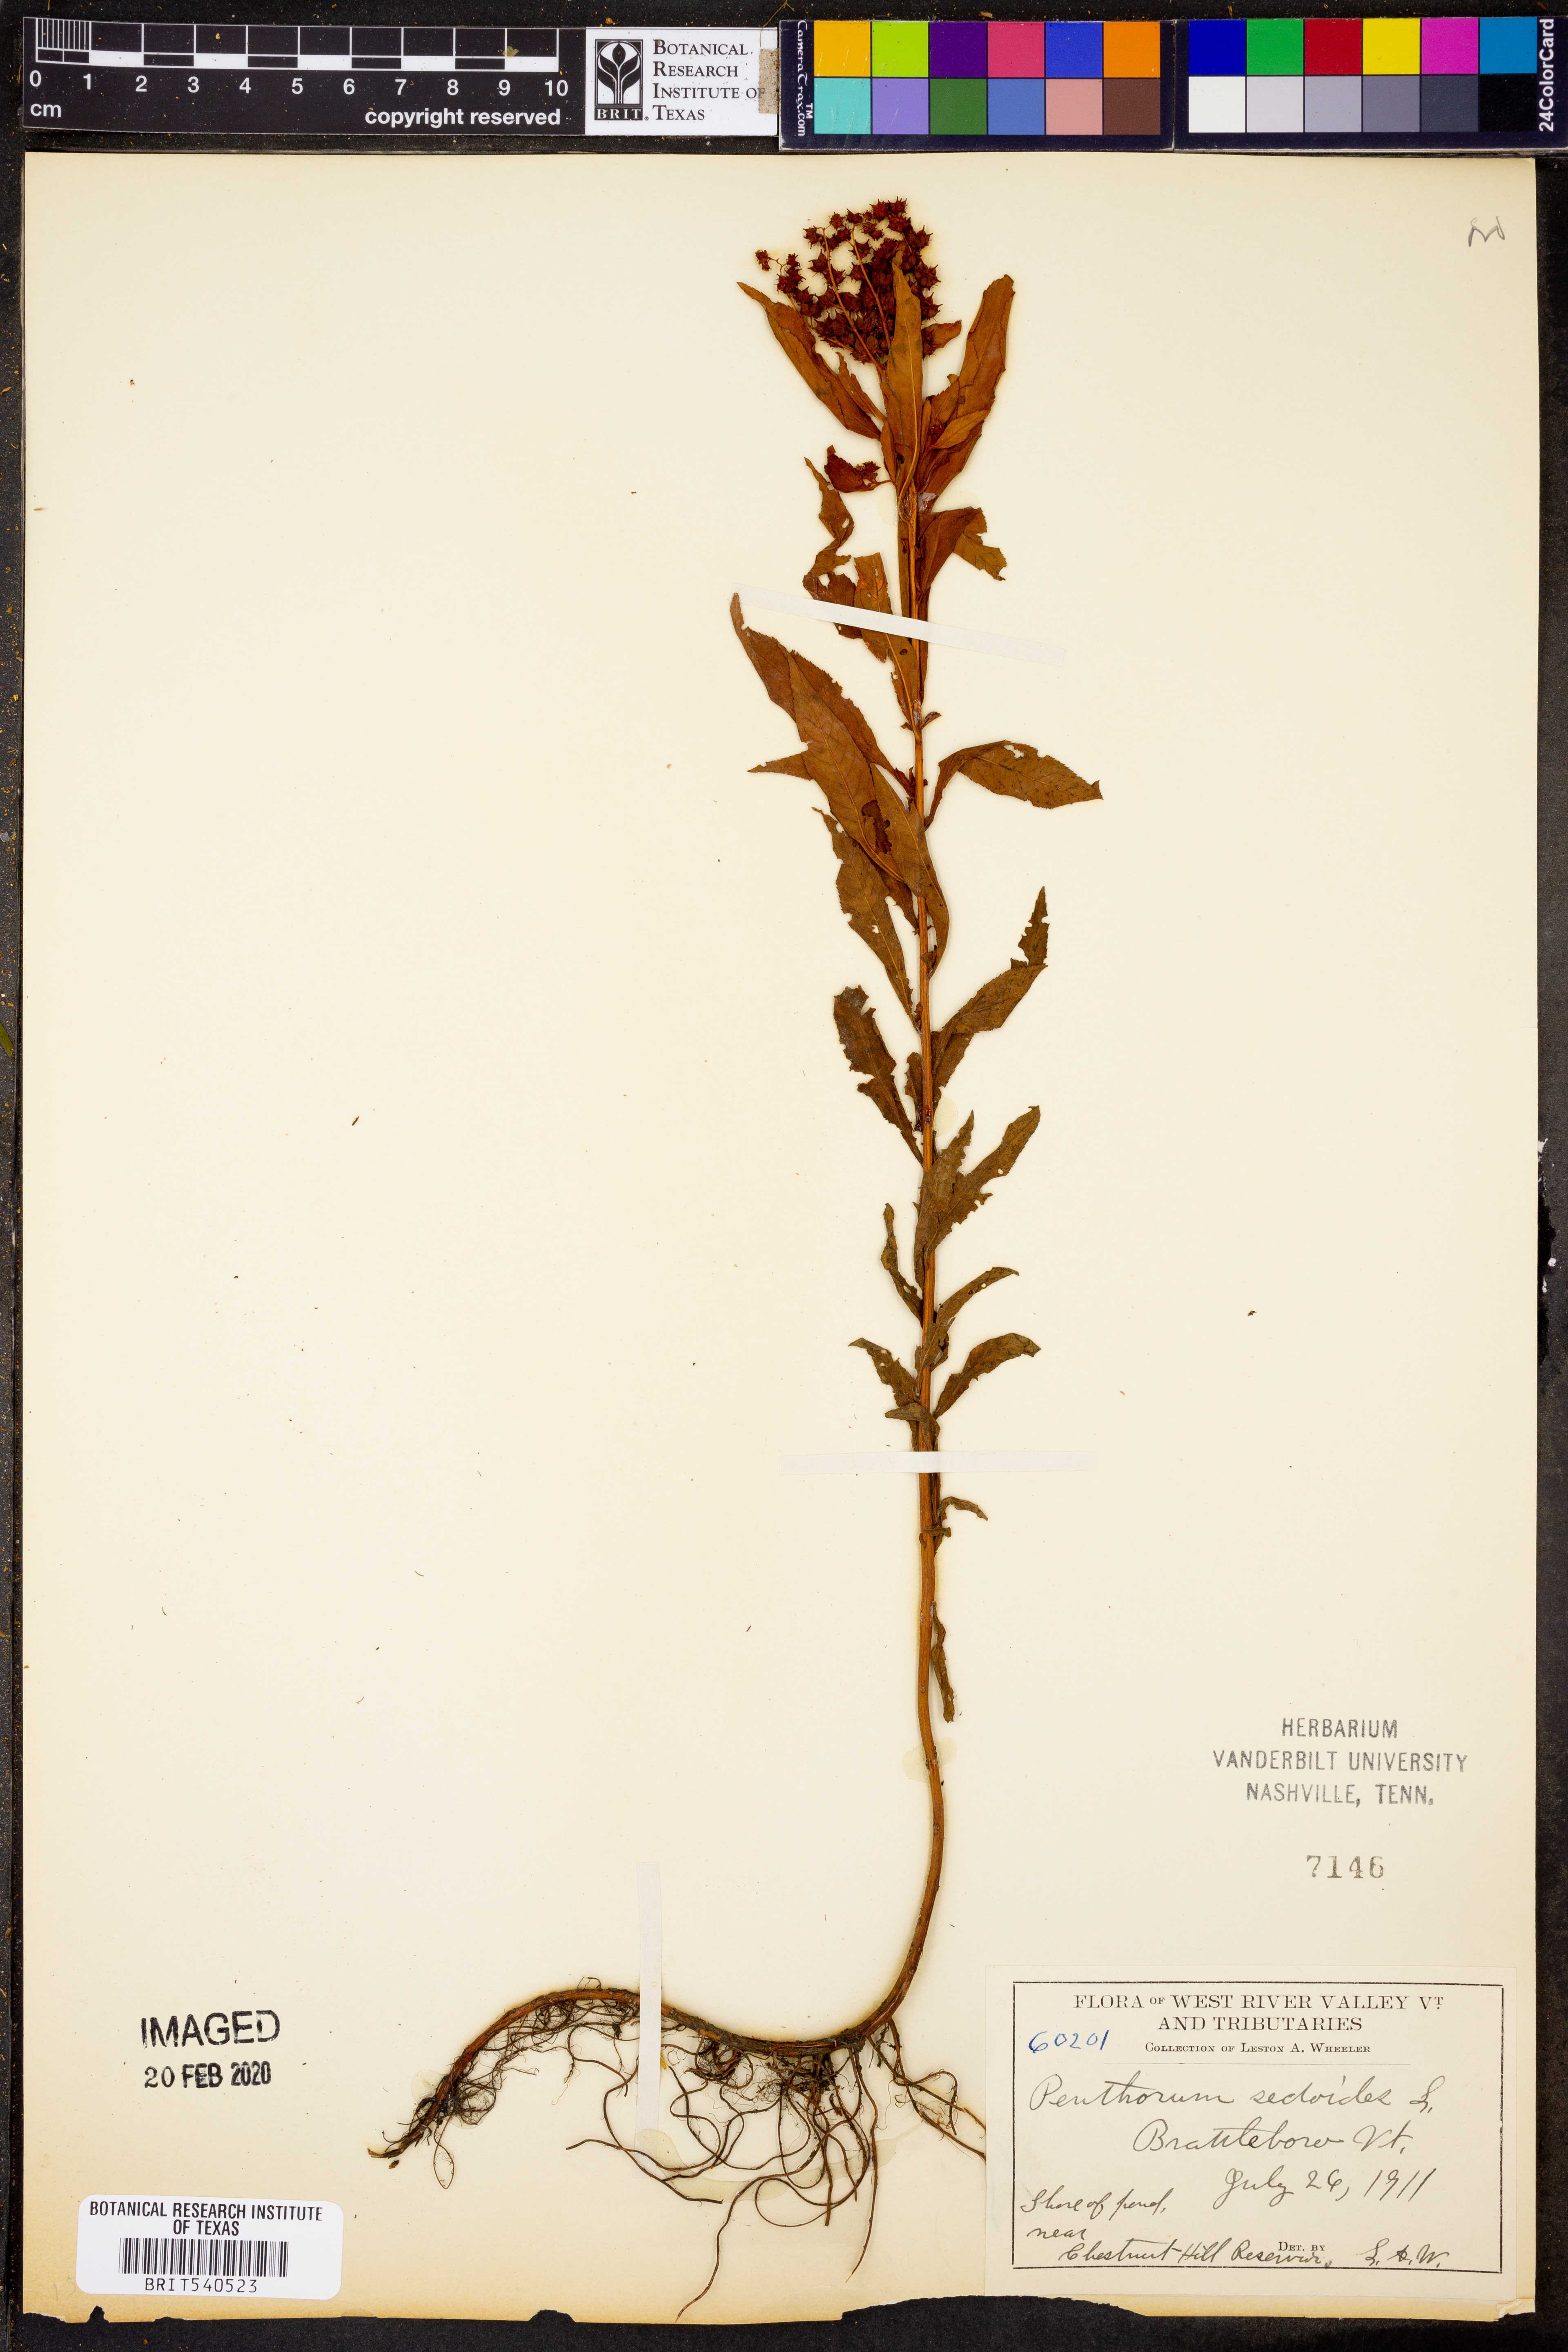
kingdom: Plantae
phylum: Tracheophyta
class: Magnoliopsida
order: Saxifragales
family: Penthoraceae
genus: Penthorum
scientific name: Penthorum sedoides
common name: Ditch stonecrop
